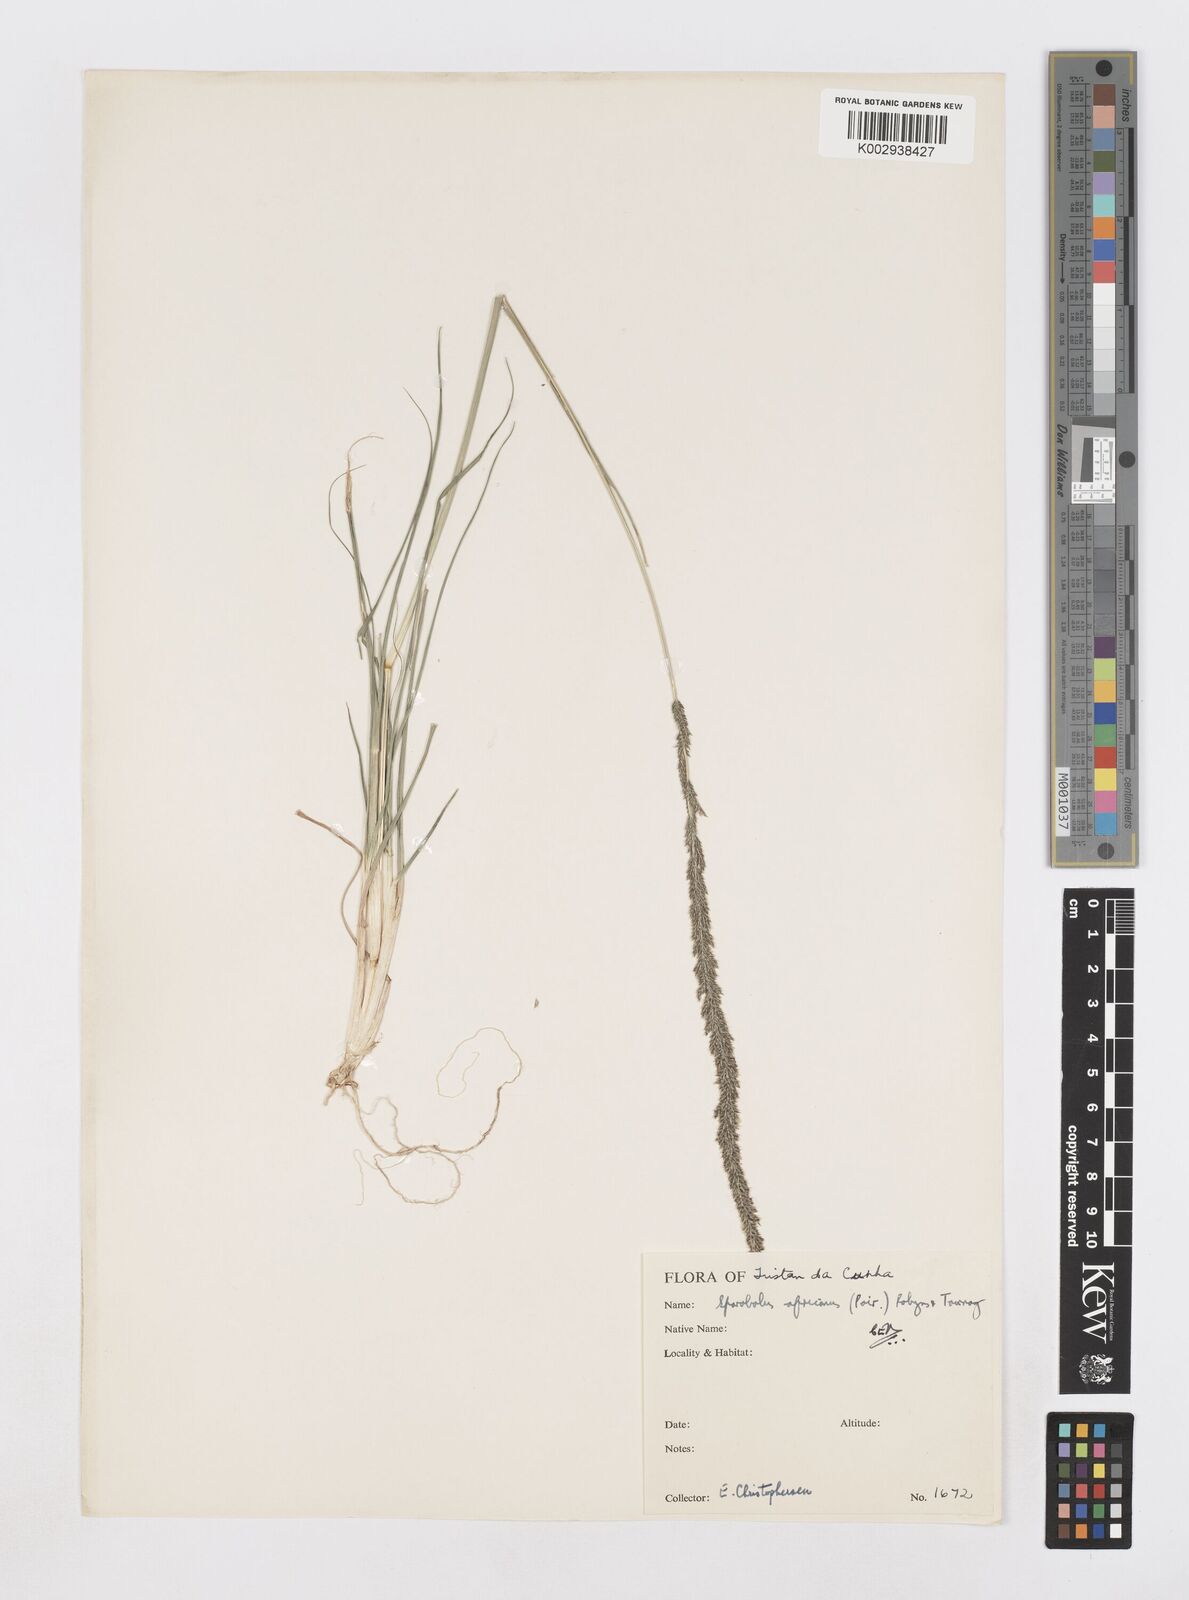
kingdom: Plantae
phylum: Tracheophyta
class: Liliopsida
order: Poales
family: Poaceae
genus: Sporobolus
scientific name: Sporobolus africanus
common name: African dropseed
